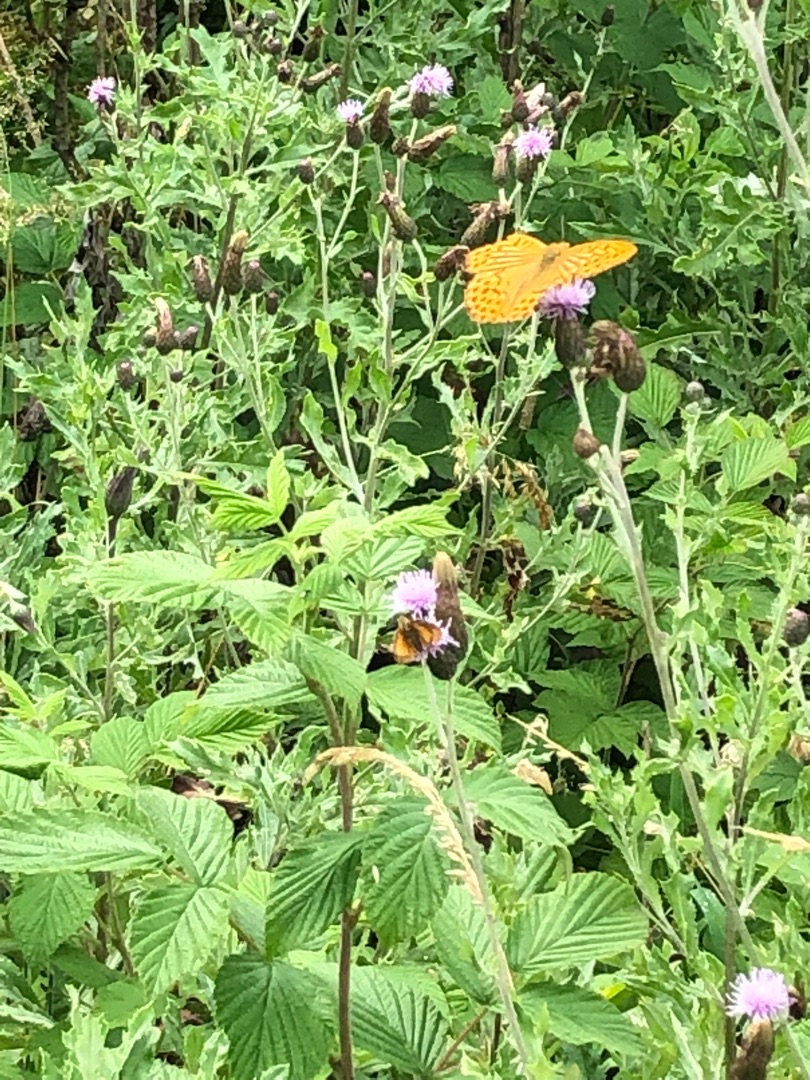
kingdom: Animalia
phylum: Arthropoda
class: Insecta
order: Lepidoptera
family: Nymphalidae
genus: Argynnis
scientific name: Argynnis paphia
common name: Kejserkåbe
